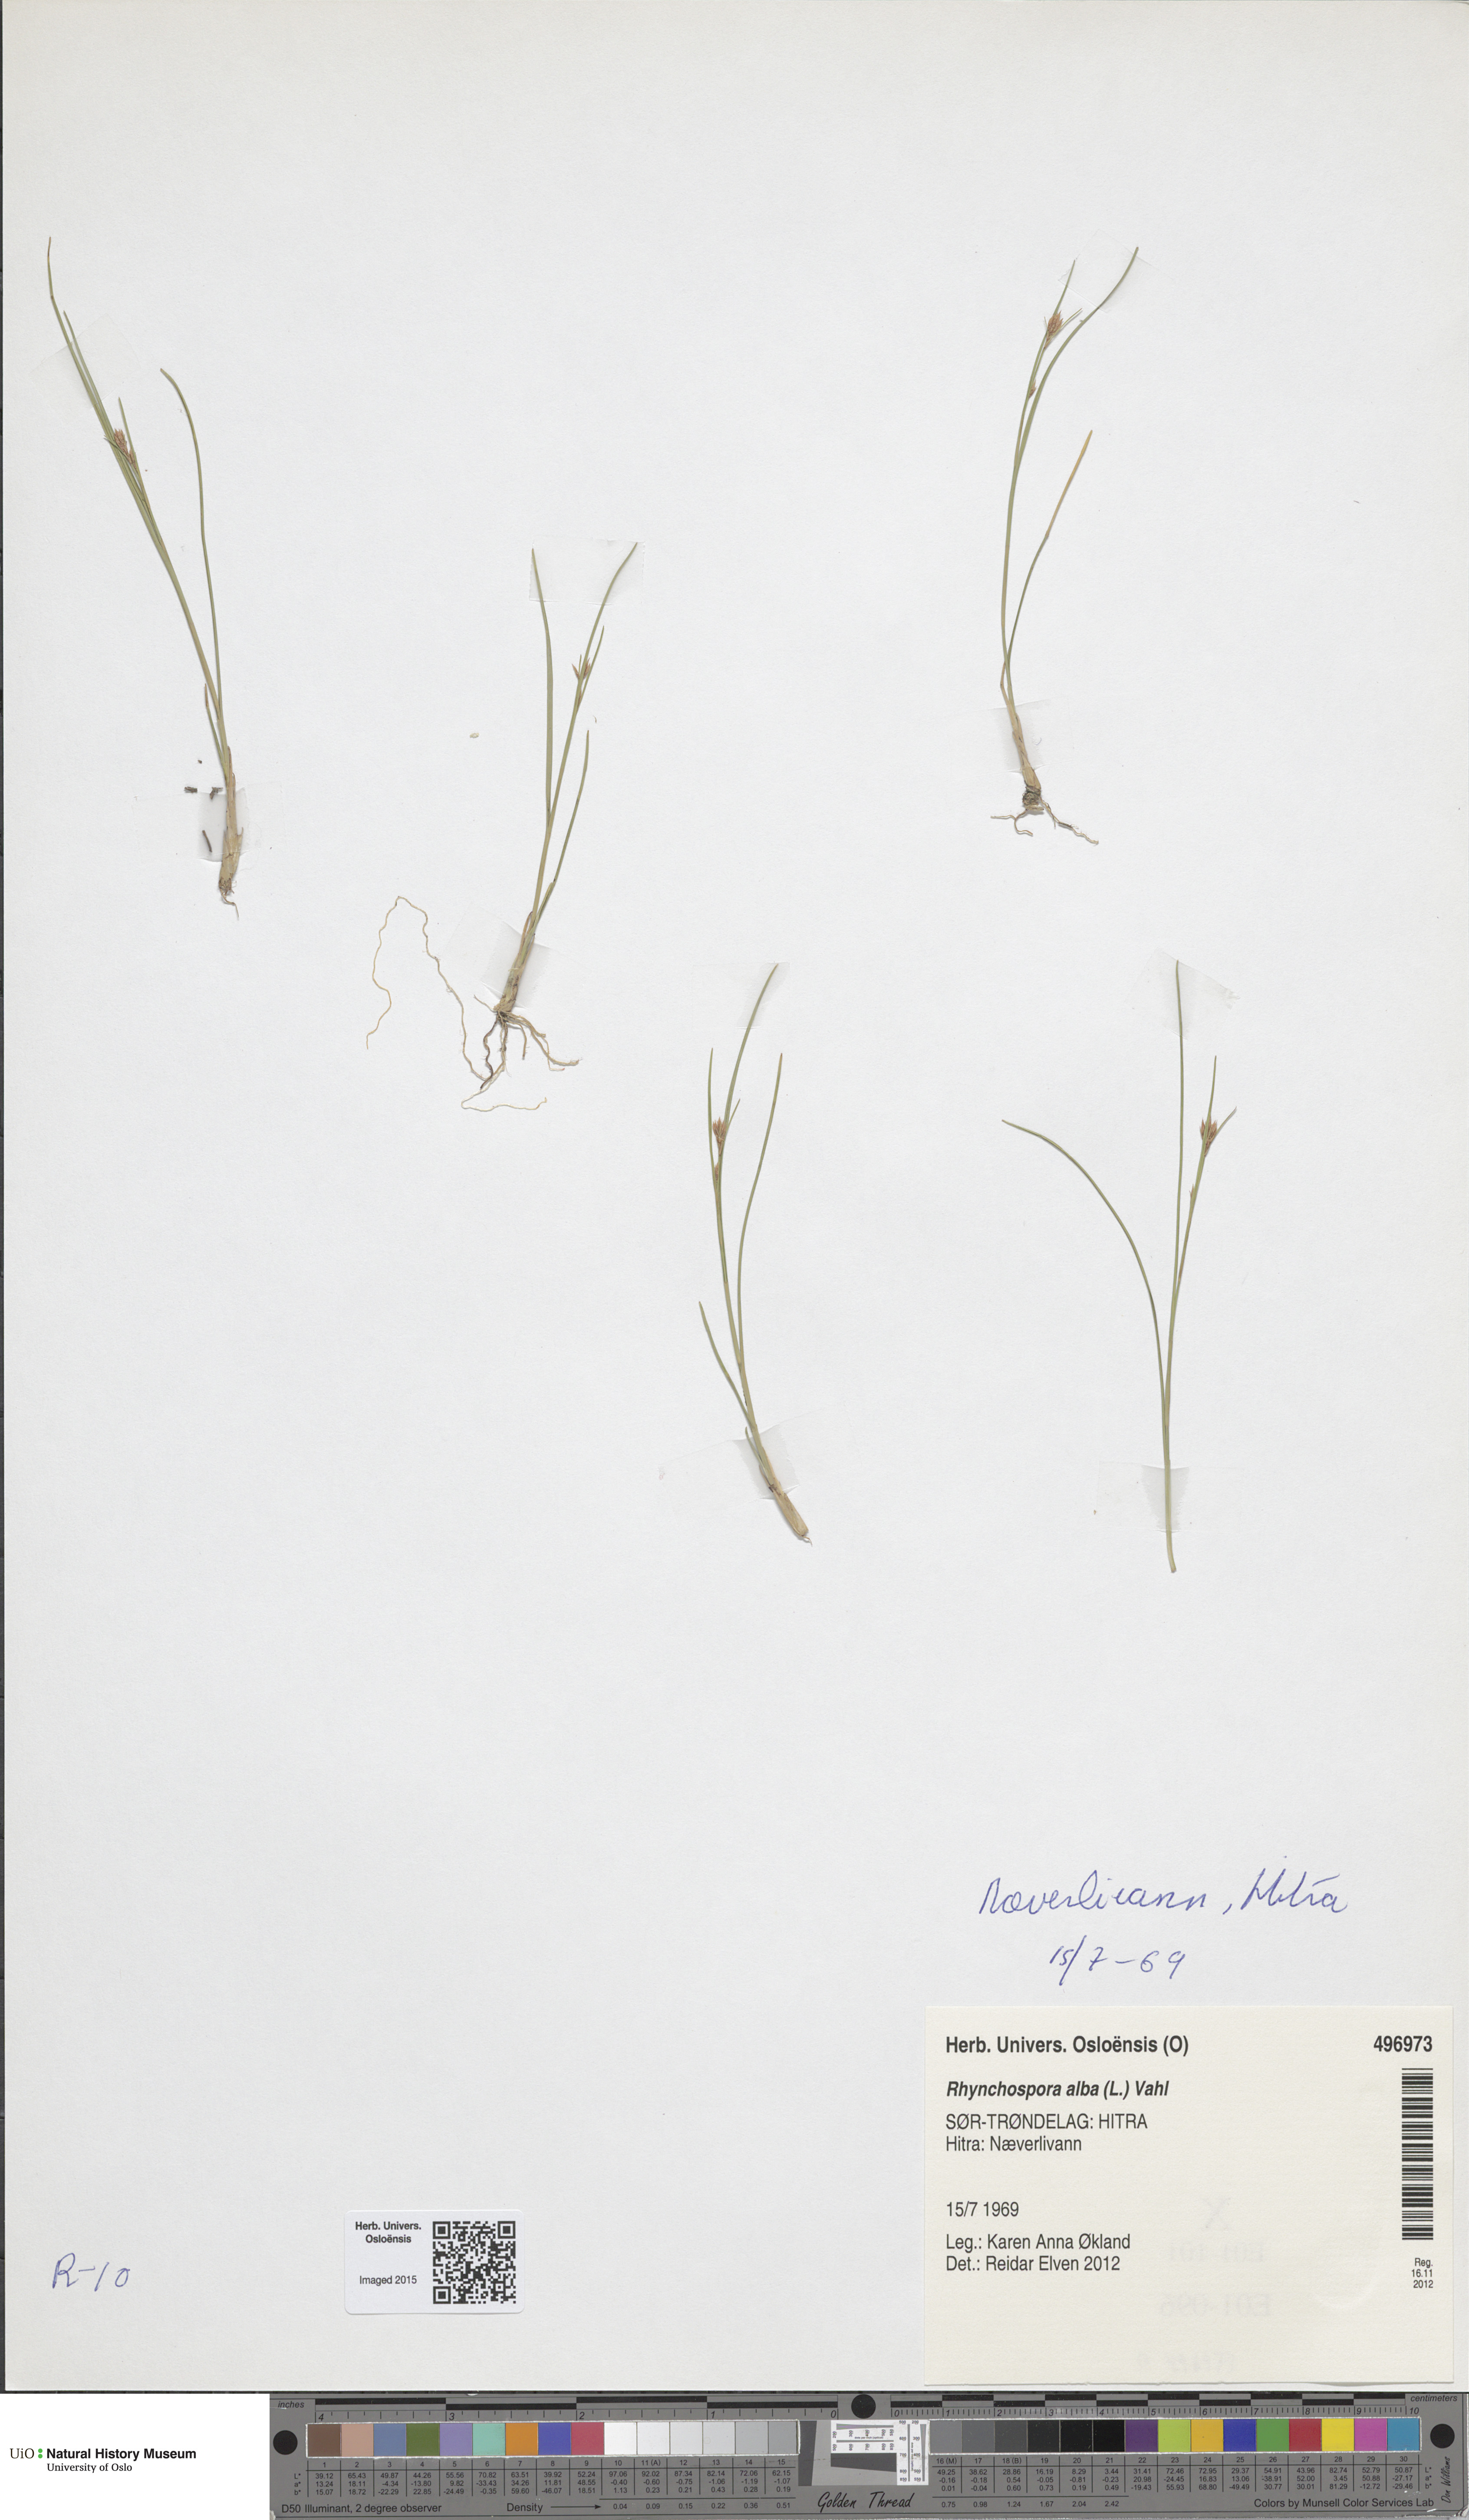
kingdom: Plantae
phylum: Tracheophyta
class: Liliopsida
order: Poales
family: Cyperaceae
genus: Rhynchospora
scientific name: Rhynchospora alba
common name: White beak-sedge
